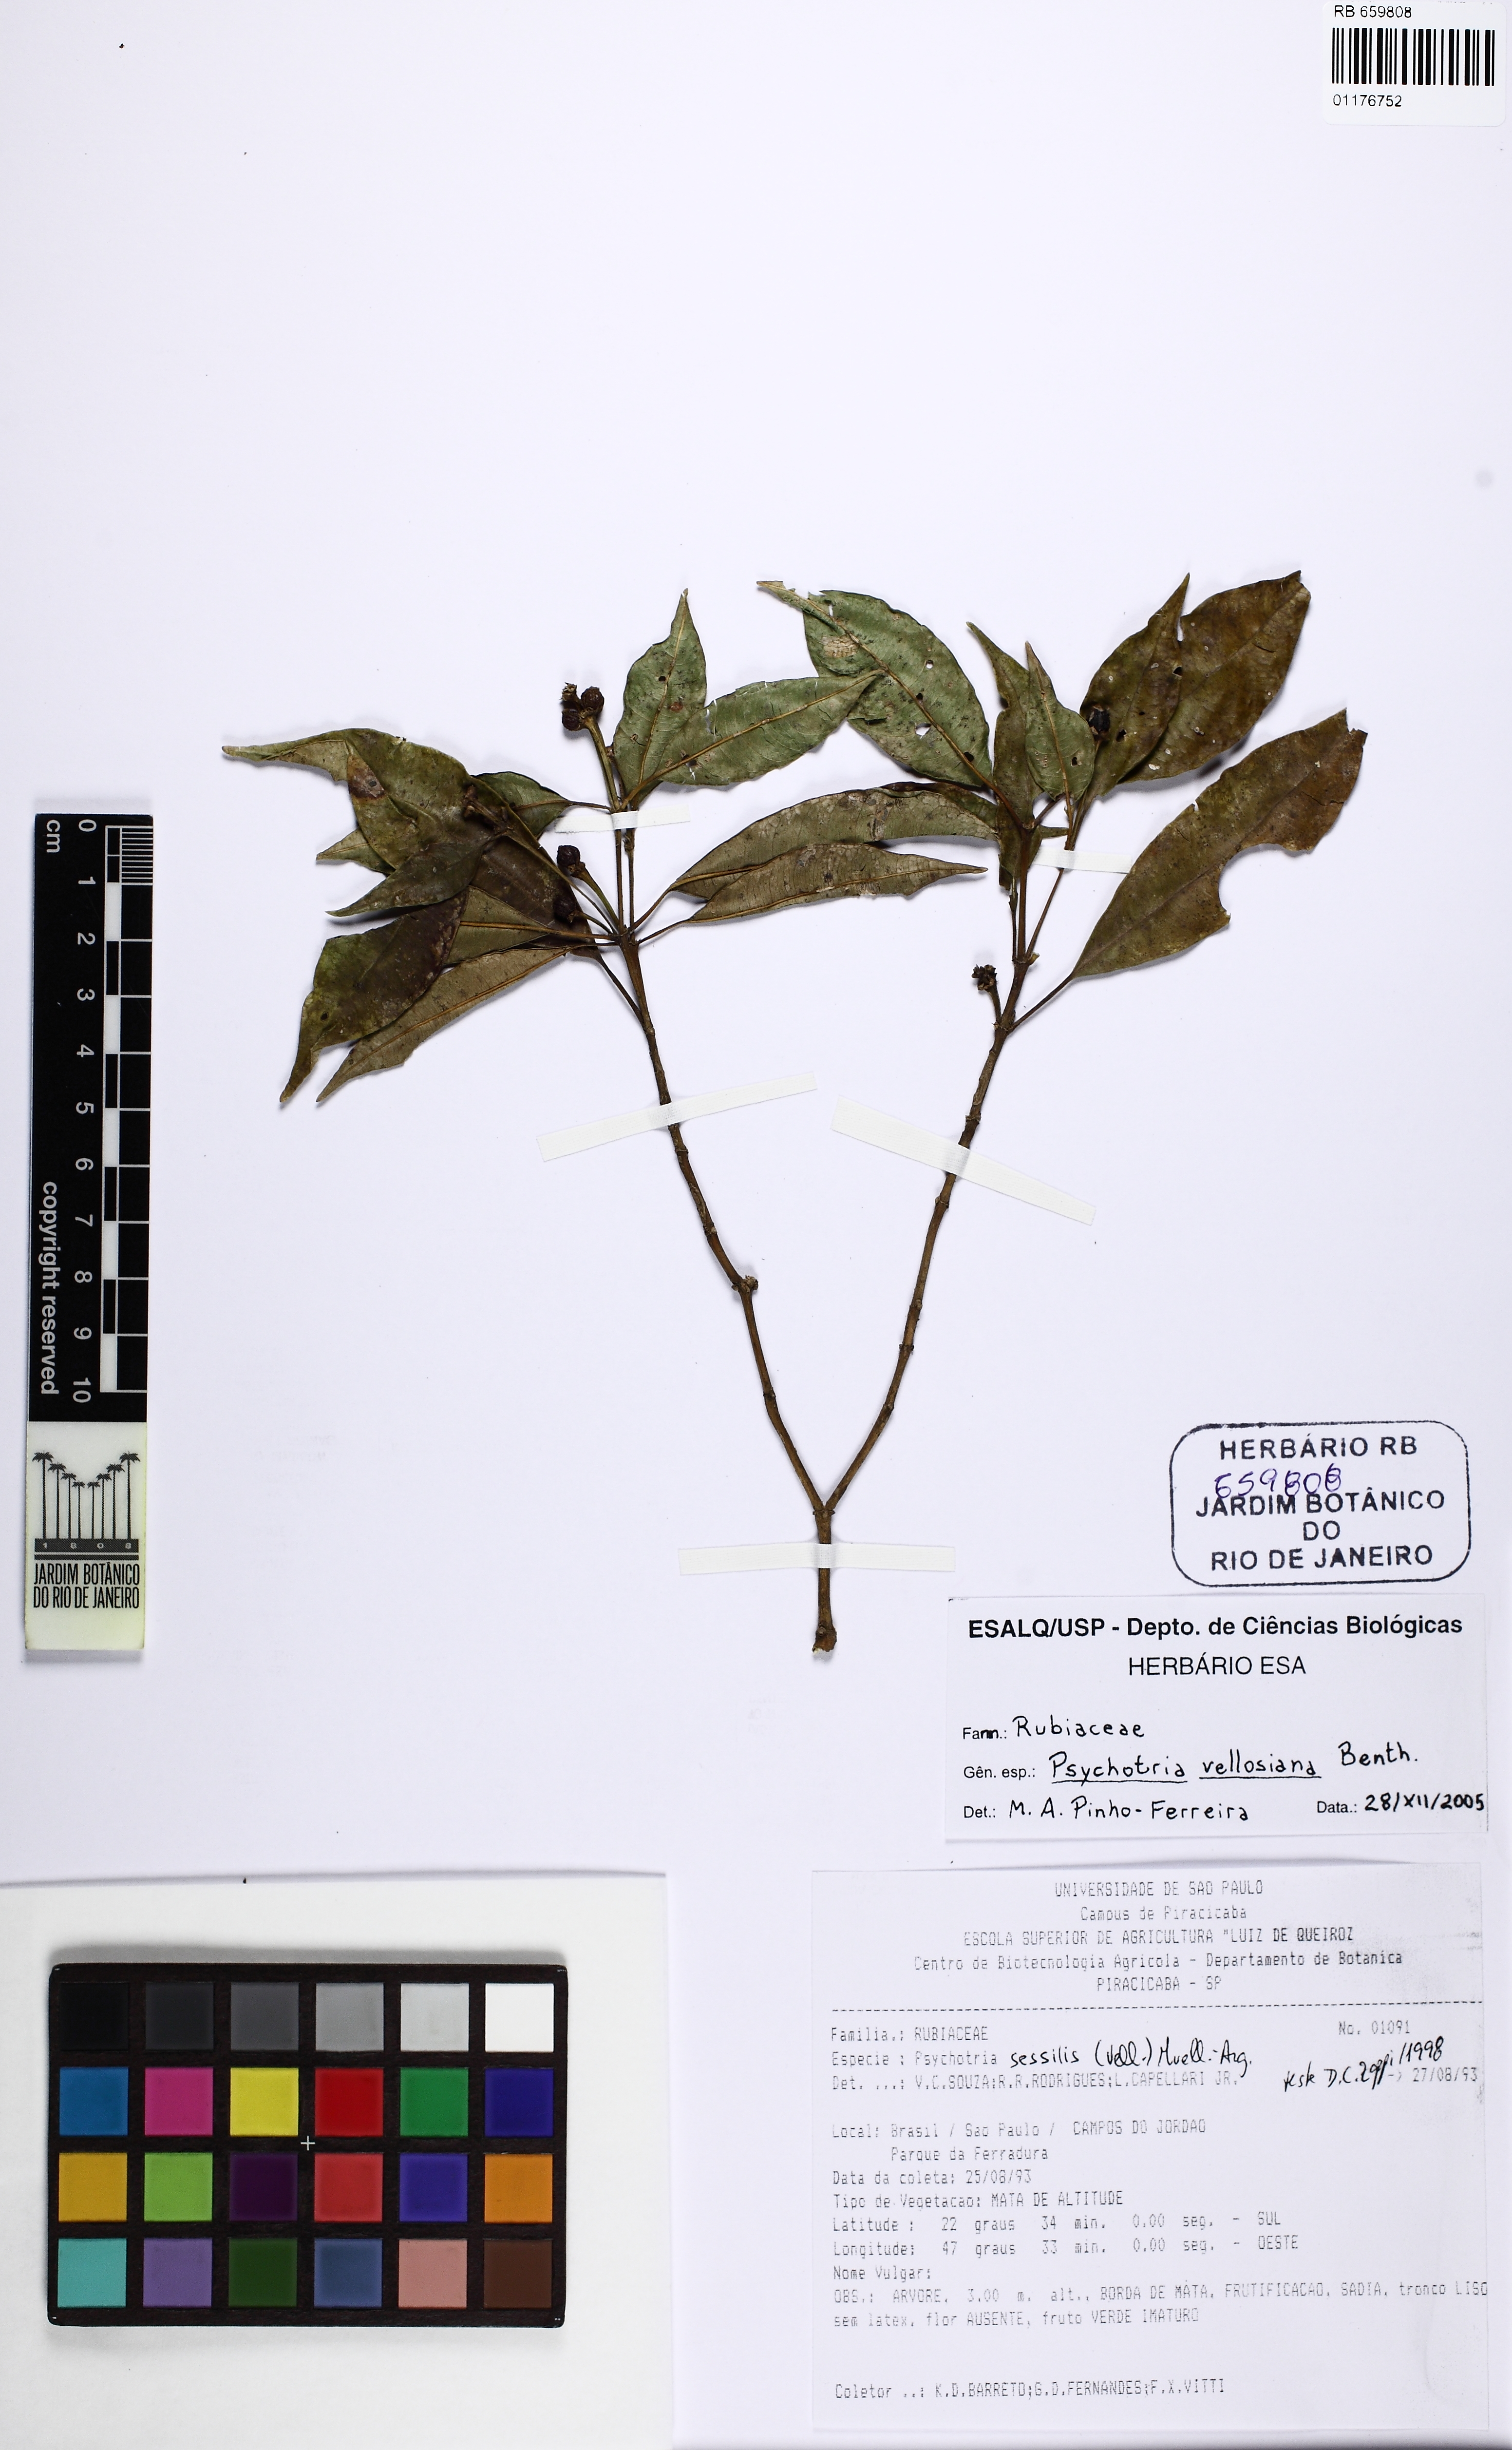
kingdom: Plantae
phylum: Tracheophyta
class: Magnoliopsida
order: Gentianales
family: Rubiaceae
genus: Palicourea
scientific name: Palicourea sessilis
